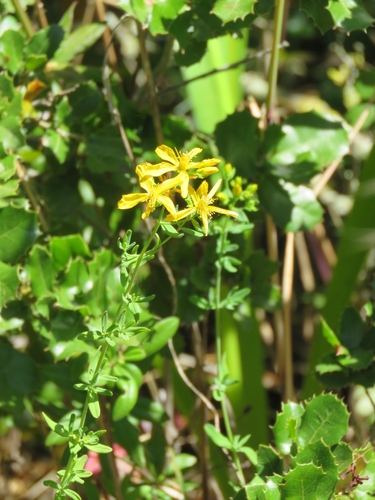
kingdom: Plantae
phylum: Tracheophyta
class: Magnoliopsida
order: Malpighiales
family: Hypericaceae
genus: Hypericum
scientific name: Hypericum perforatum
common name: Common st. johnswort
